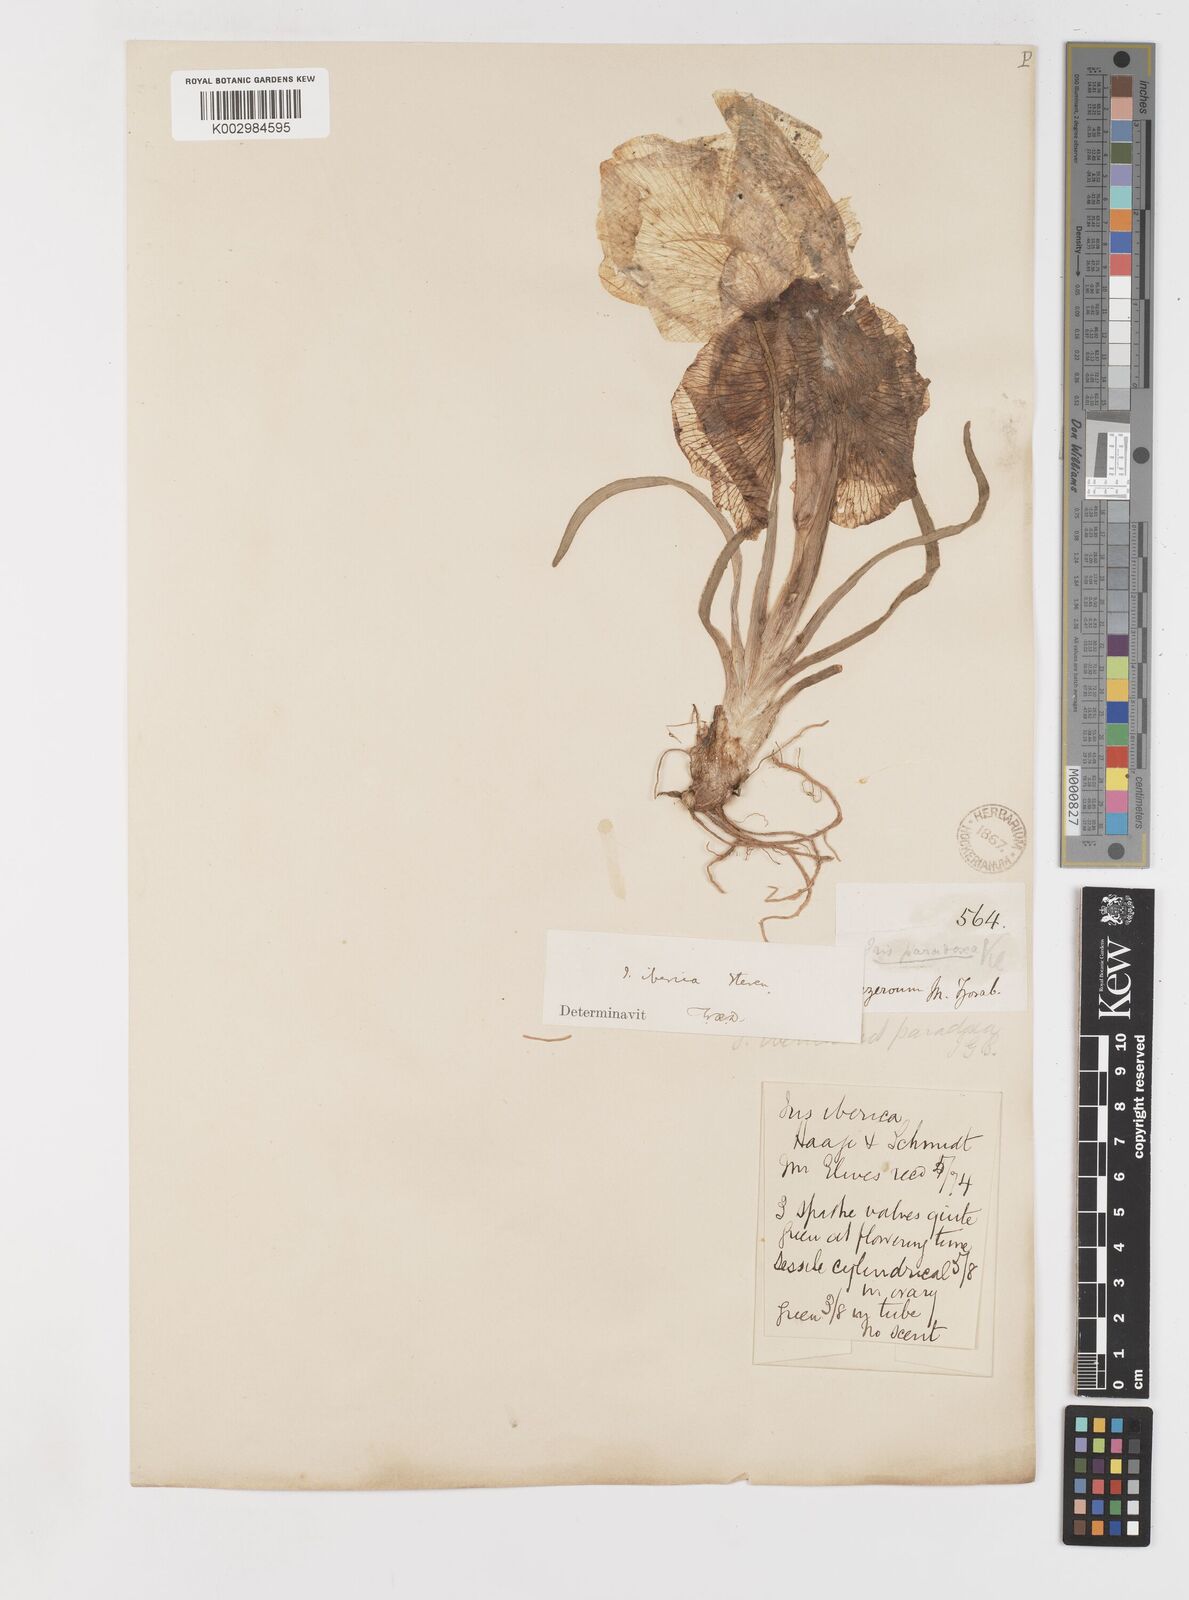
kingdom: Plantae
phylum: Tracheophyta
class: Liliopsida
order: Asparagales
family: Iridaceae
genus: Iris
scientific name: Iris iberica
